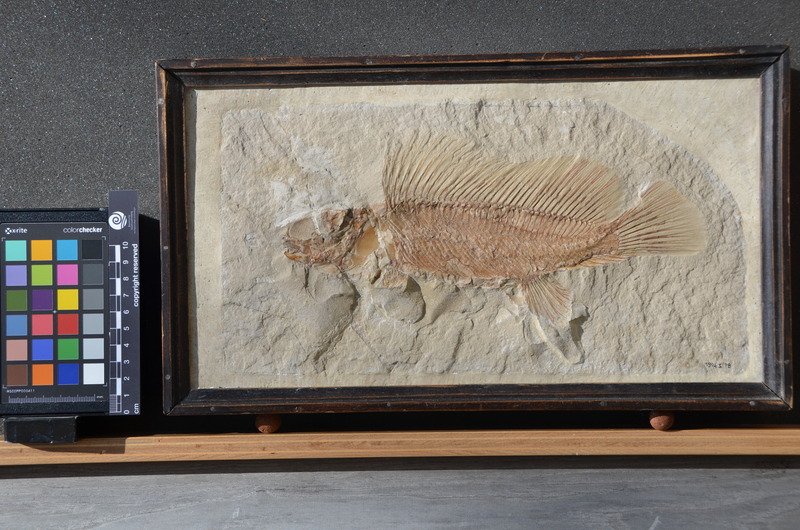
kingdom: Animalia
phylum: Chordata
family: Macrosemiidae
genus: Macrosemius
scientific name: Macrosemius rostratus
